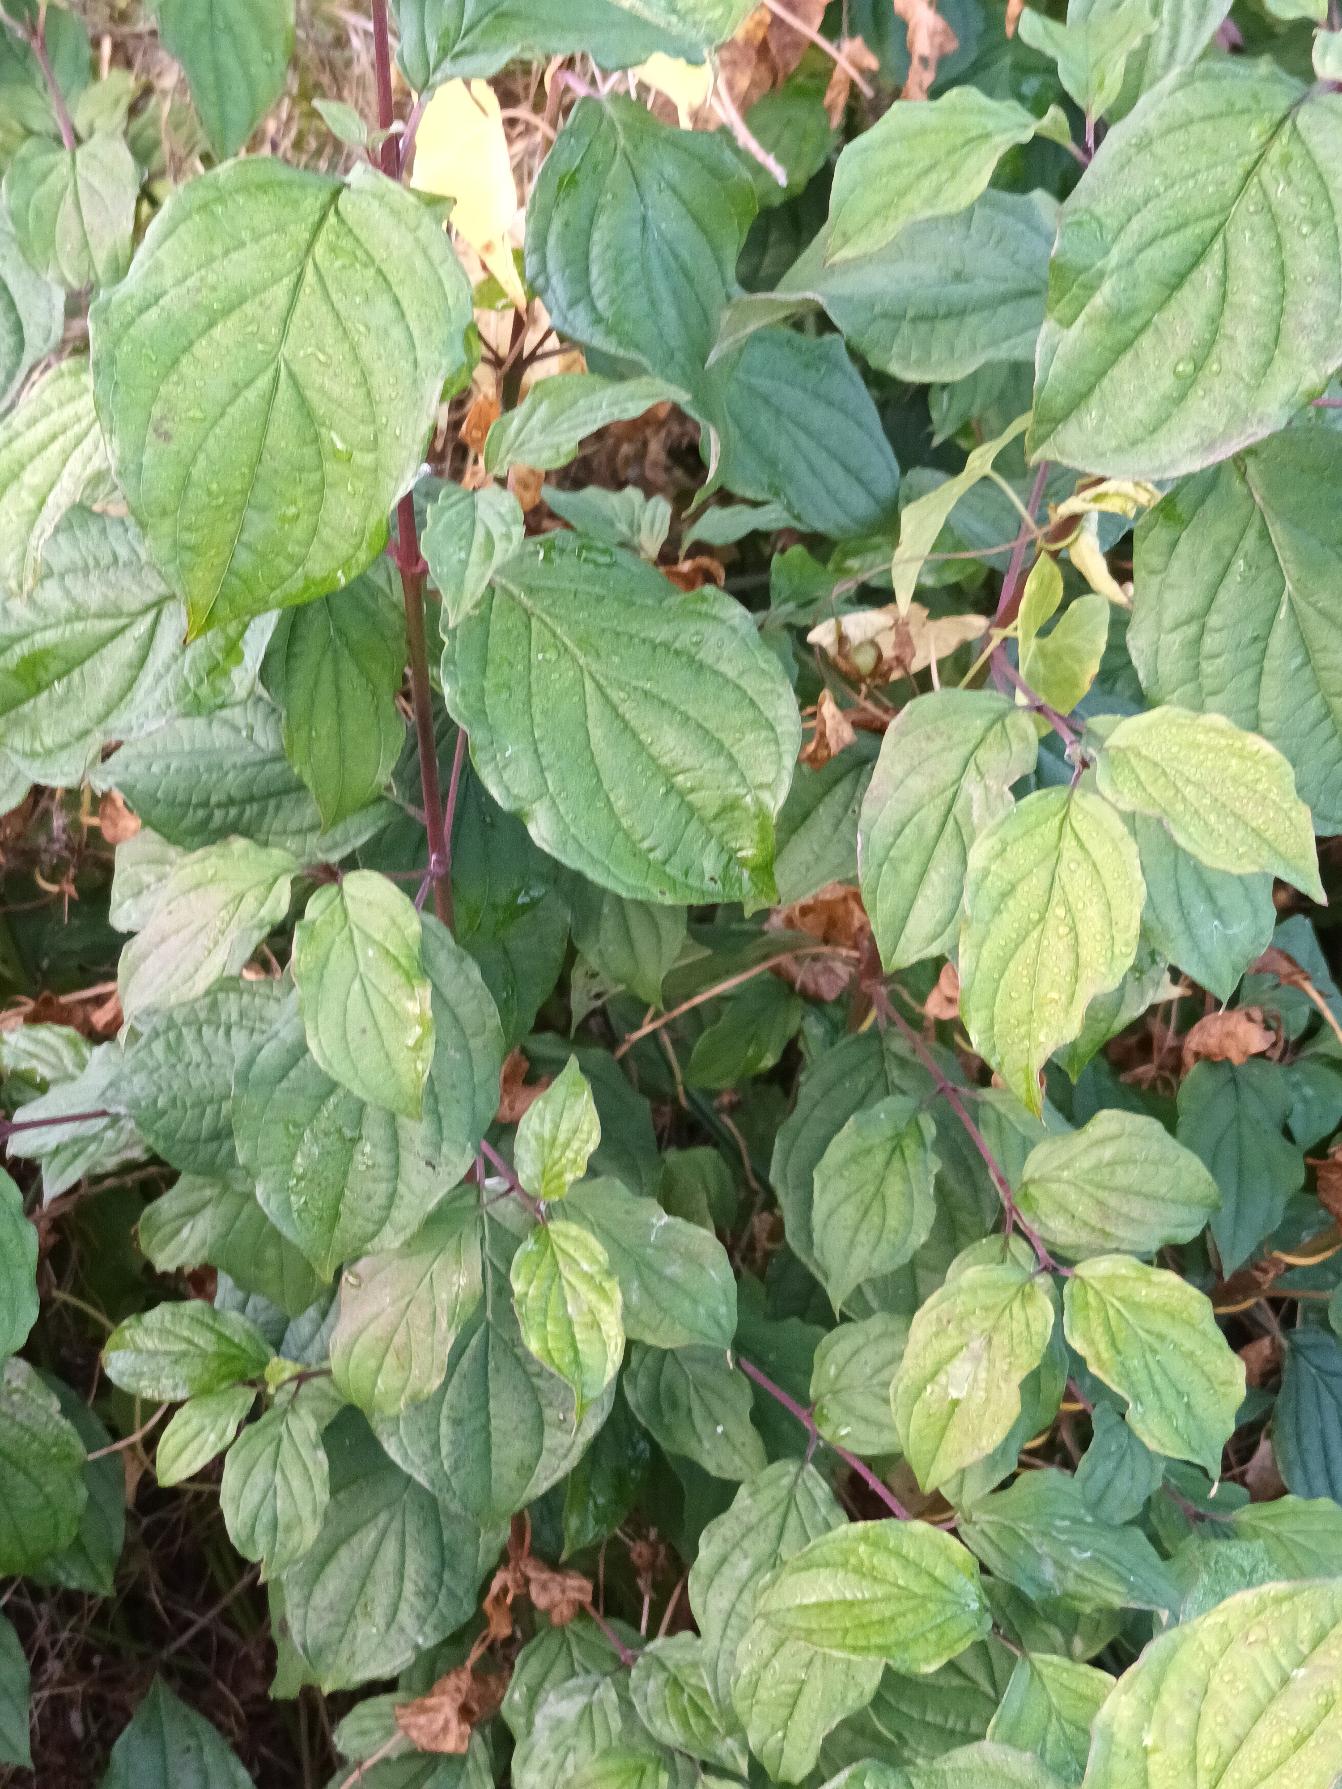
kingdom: Plantae
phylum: Tracheophyta
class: Magnoliopsida
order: Cornales
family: Cornaceae
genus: Cornus
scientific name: Cornus sanguinea
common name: Rød kornel
